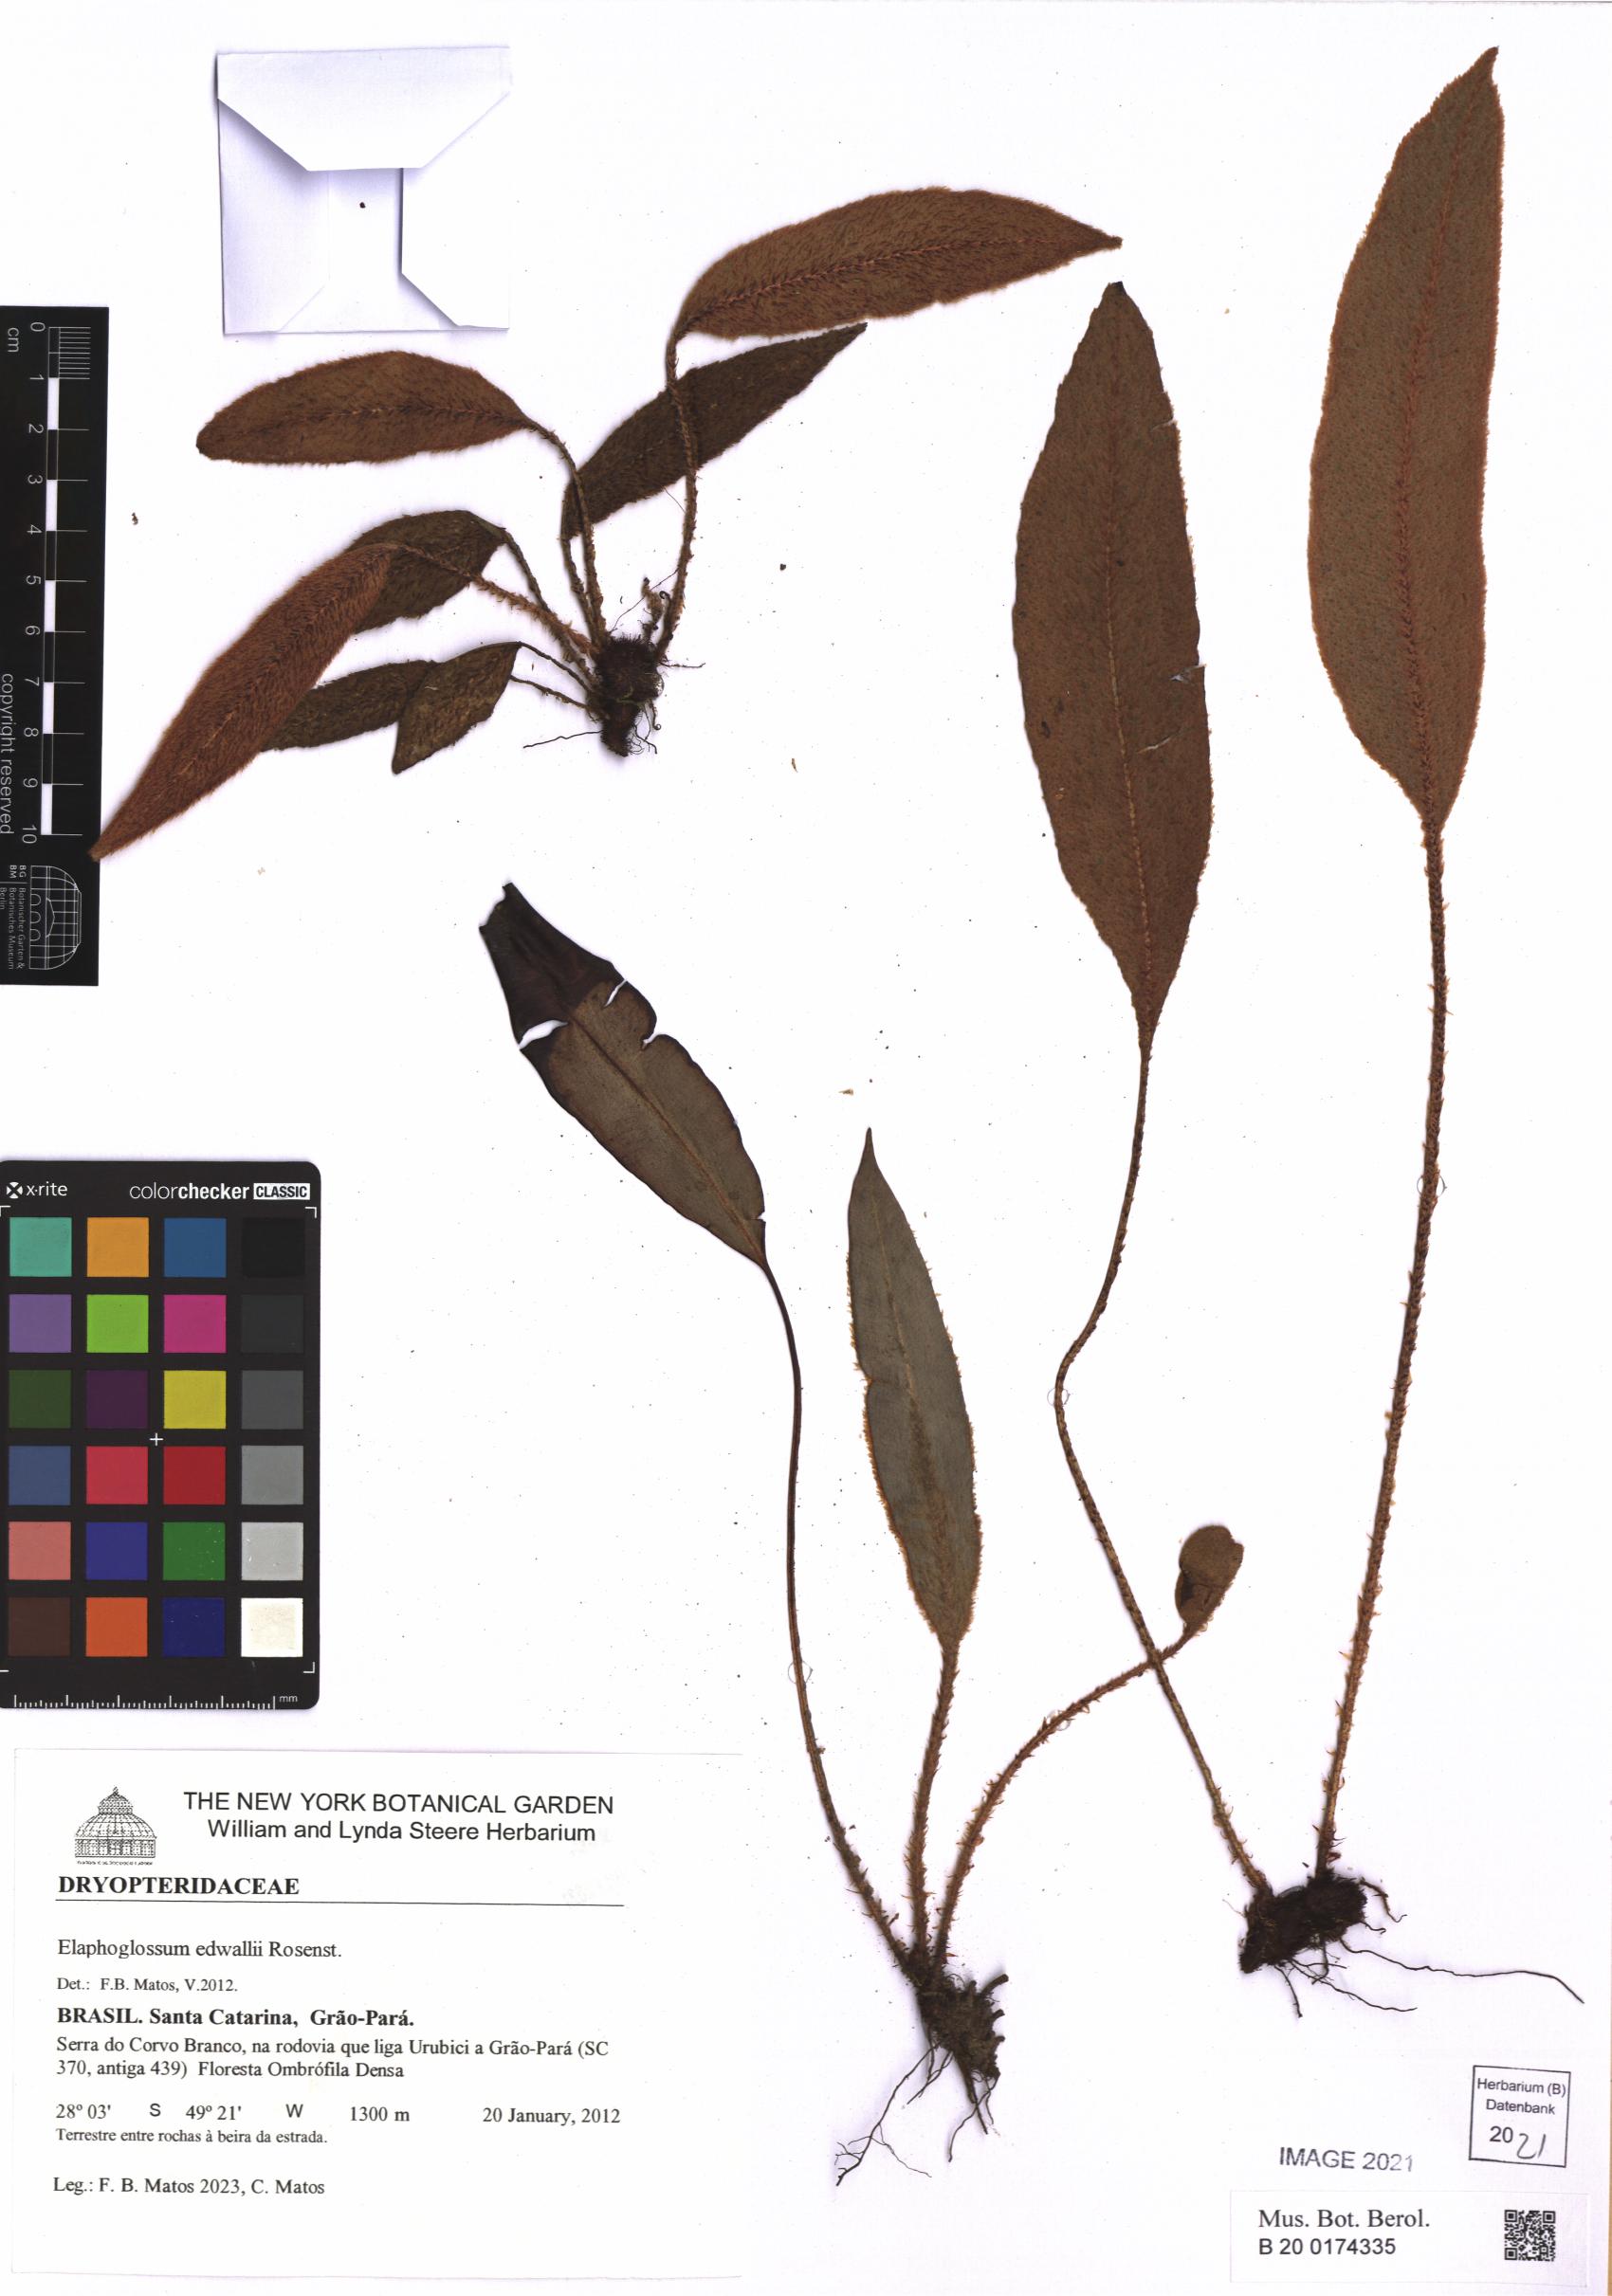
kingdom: Plantae
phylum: Tracheophyta
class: Polypodiopsida
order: Polypodiales
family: Dryopteridaceae
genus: Elaphoglossum
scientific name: Elaphoglossum edwallii
